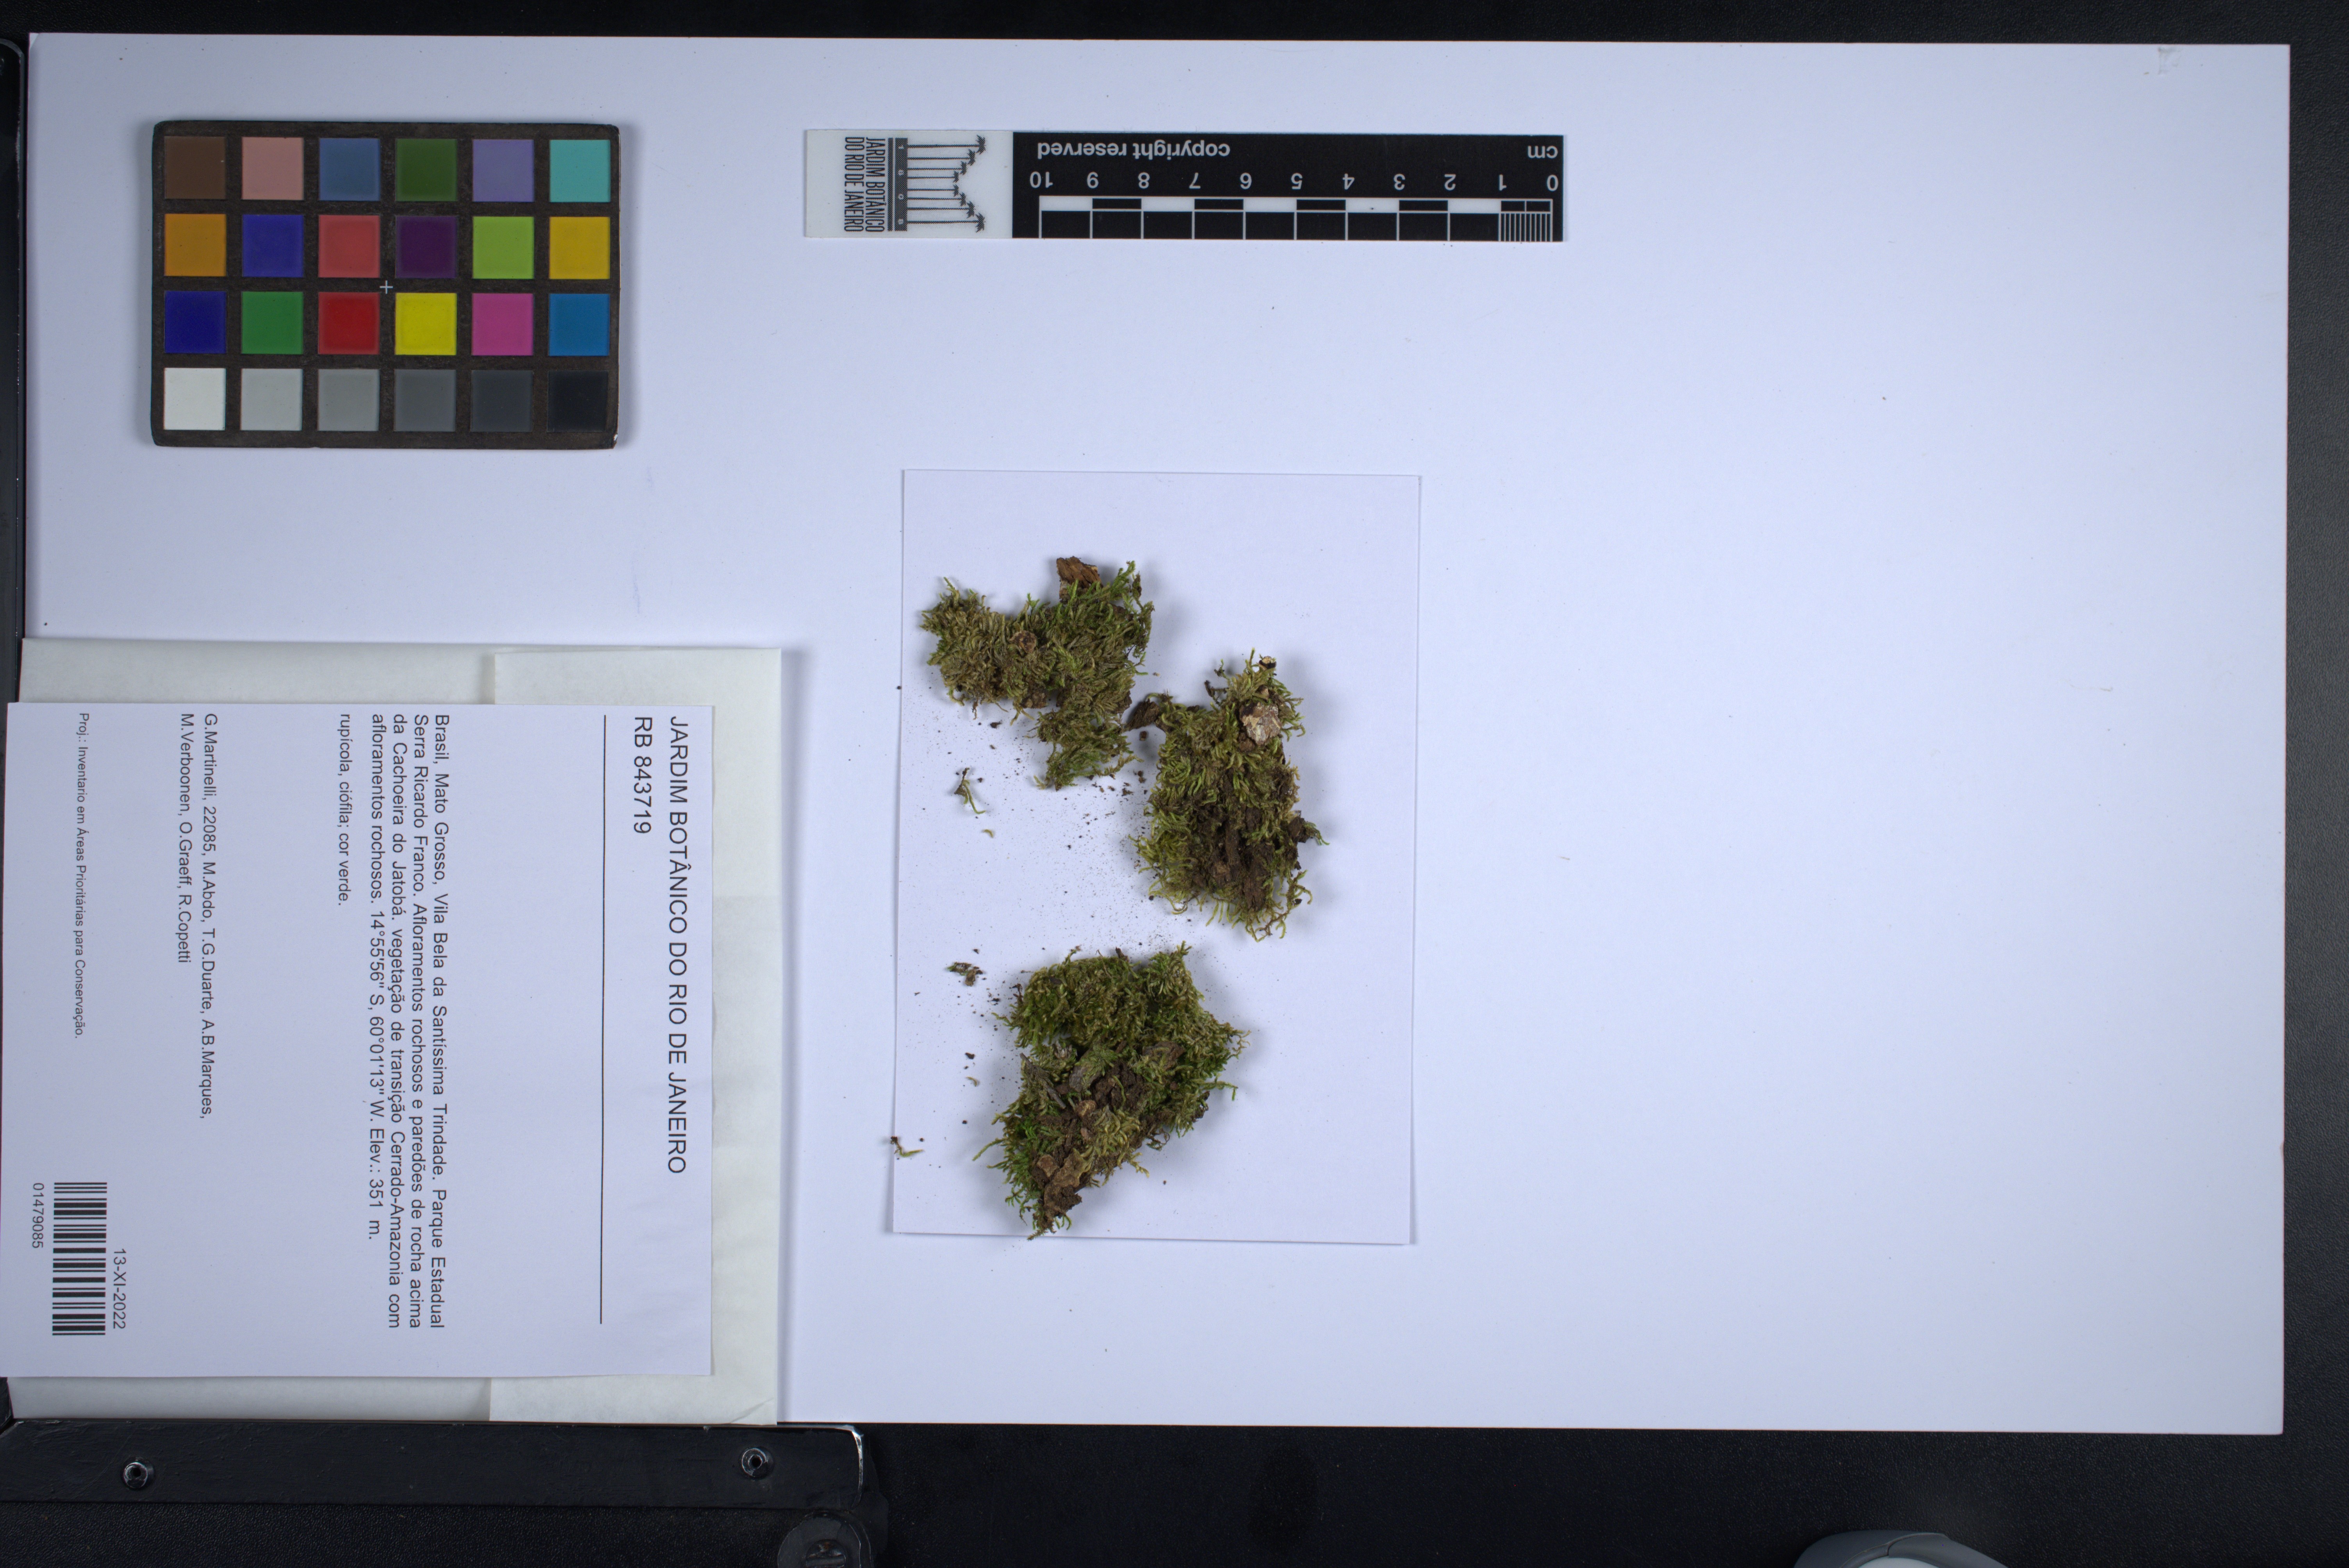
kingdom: Plantae
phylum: Bryophyta
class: Bryopsida
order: Hypnales
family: Sematophyllaceae
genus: Microcalpe
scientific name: Microcalpe subsimplex
